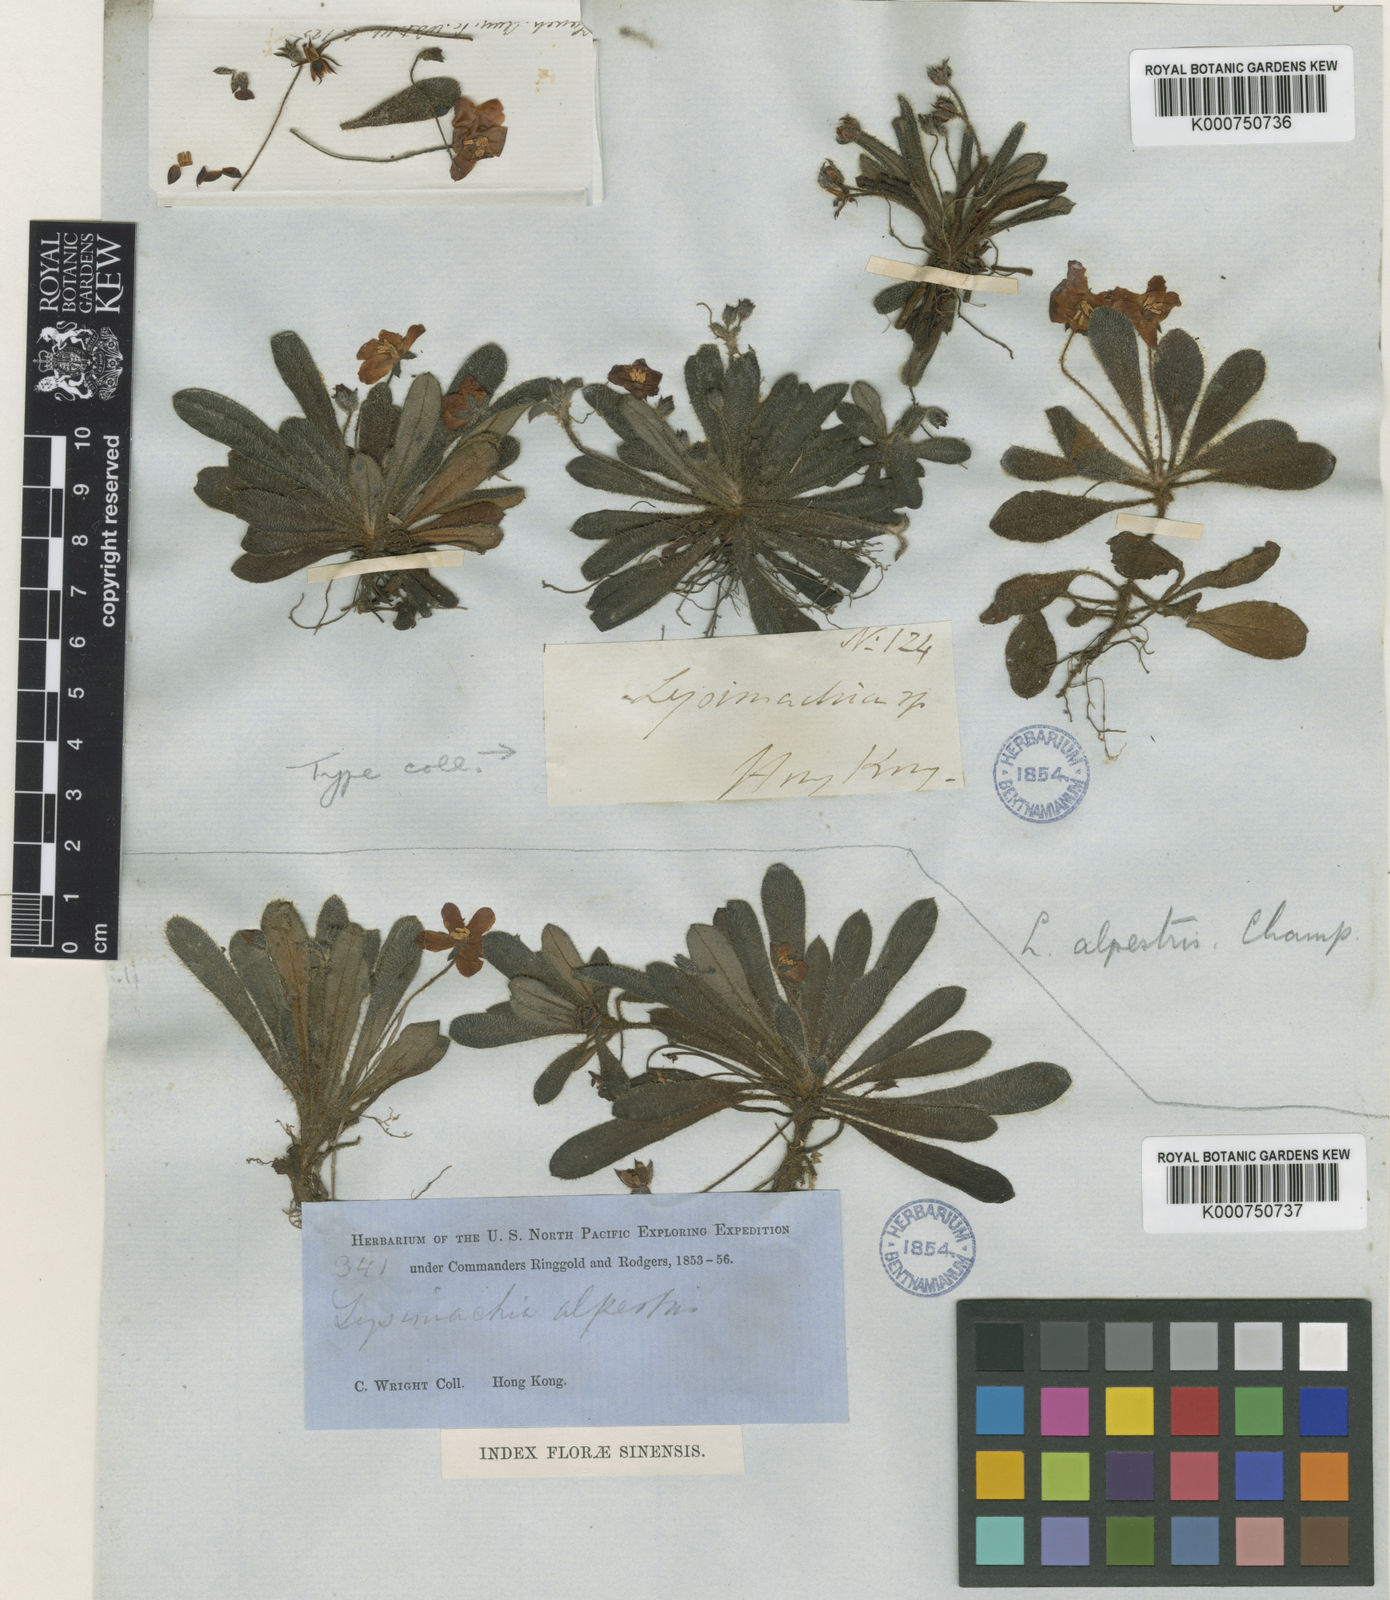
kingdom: Plantae
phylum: Tracheophyta
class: Magnoliopsida
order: Ericales
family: Primulaceae
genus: Lysimachia
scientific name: Lysimachia alpestris
